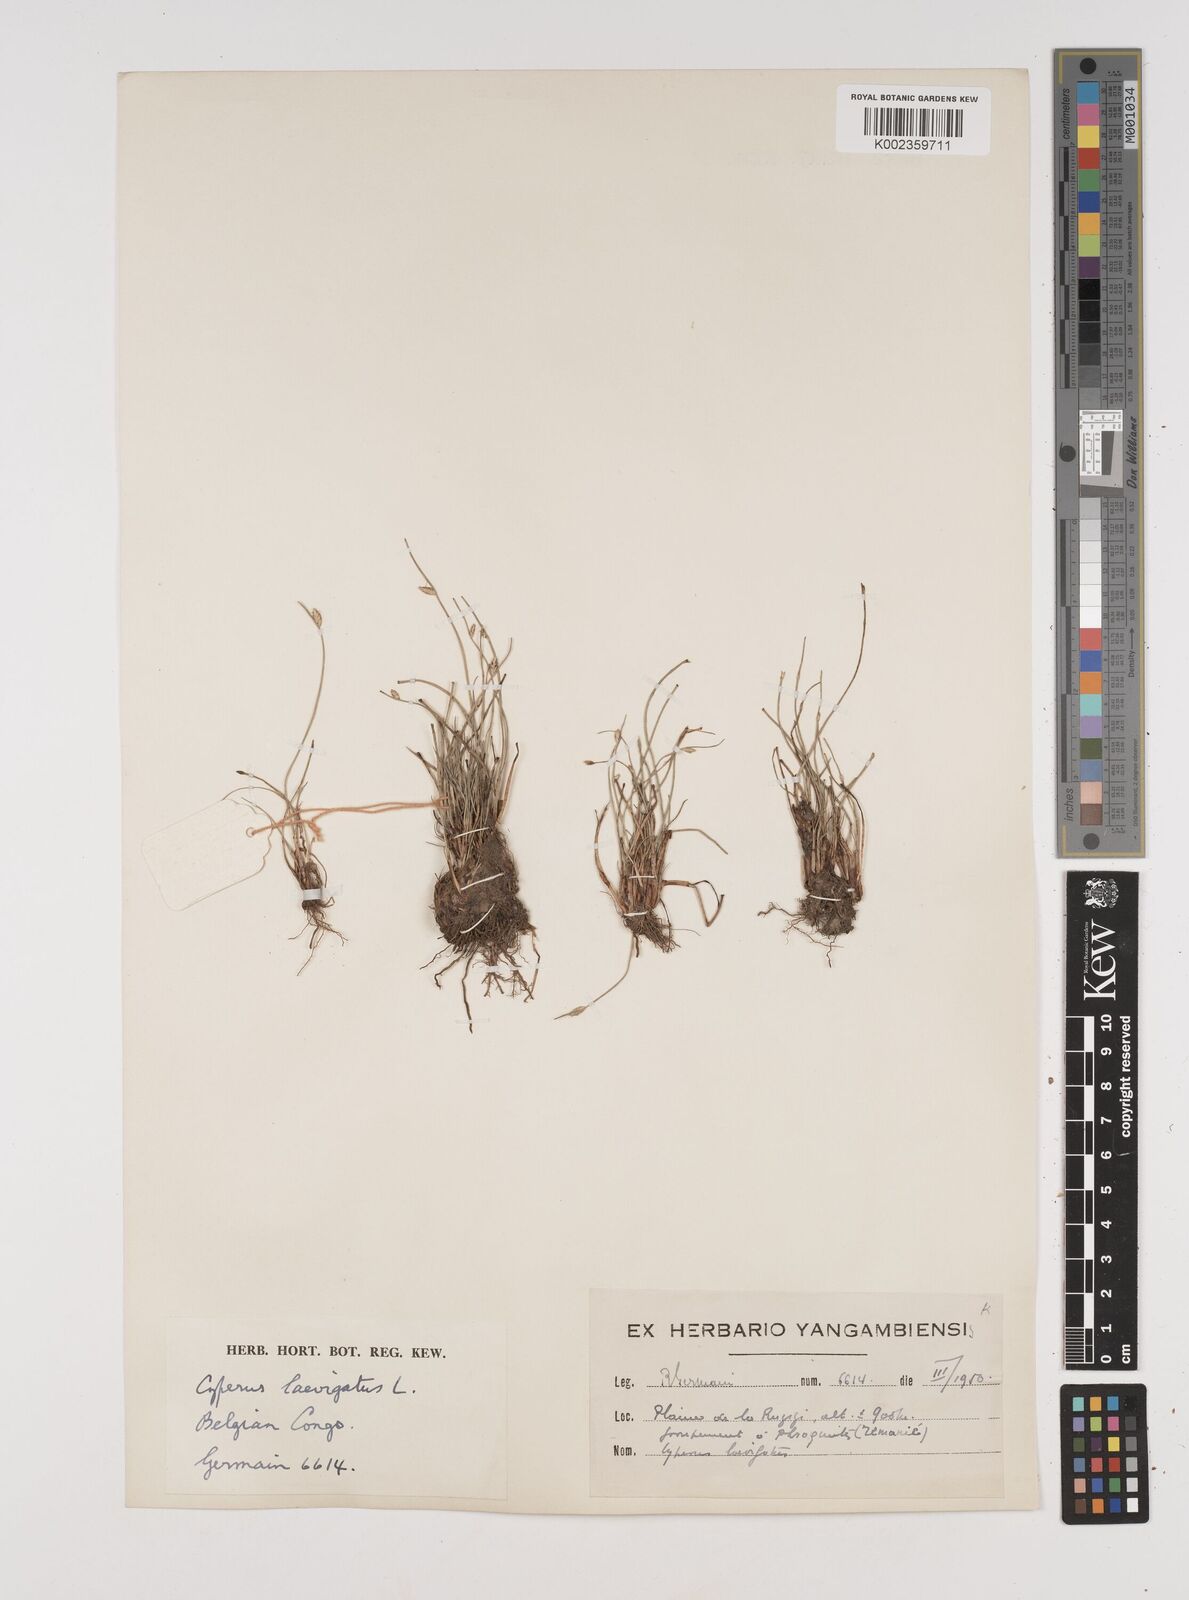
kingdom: Plantae
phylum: Tracheophyta
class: Liliopsida
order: Poales
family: Cyperaceae
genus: Cyperus
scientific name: Cyperus laevigatus
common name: Smooth flat sedge
